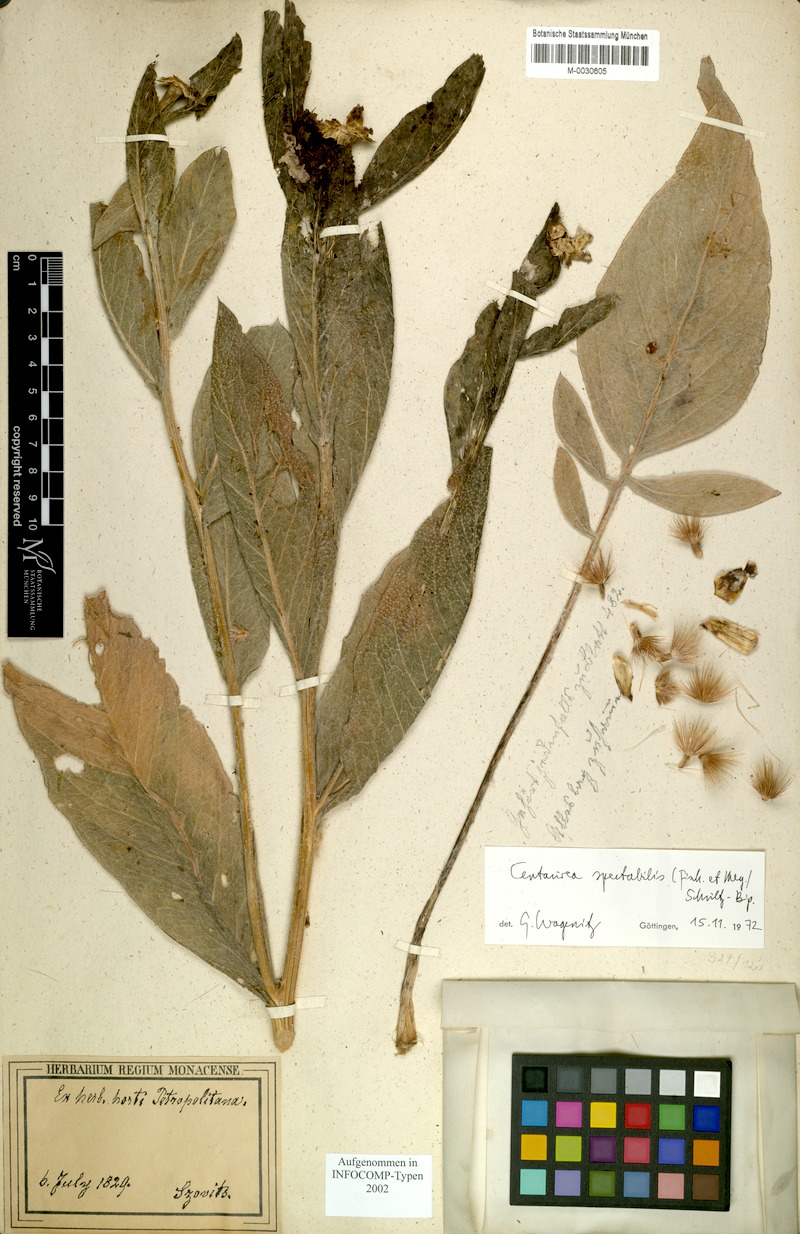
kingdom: Plantae
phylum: Tracheophyta
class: Magnoliopsida
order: Asterales
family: Asteraceae
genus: Centaurea
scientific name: Centaurea spectabilis
